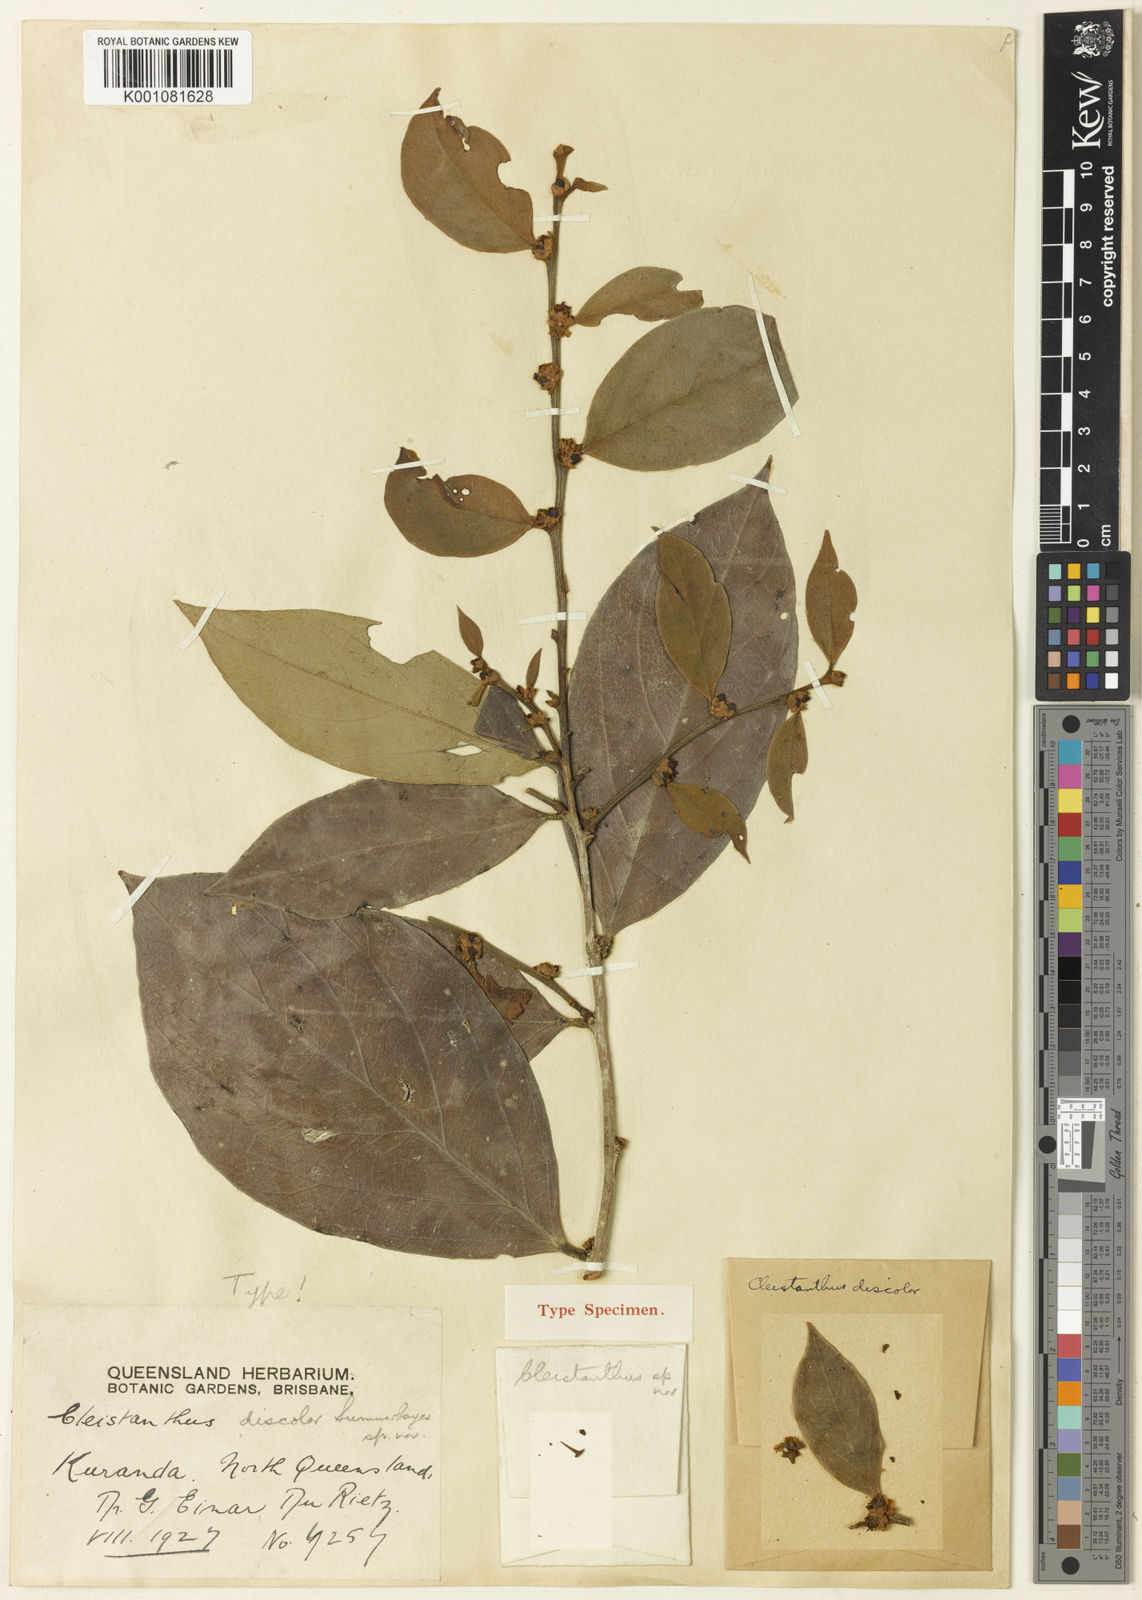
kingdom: Plantae
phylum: Tracheophyta
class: Magnoliopsida
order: Malpighiales
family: Phyllanthaceae
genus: Cleistanthus
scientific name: Cleistanthus discolor
